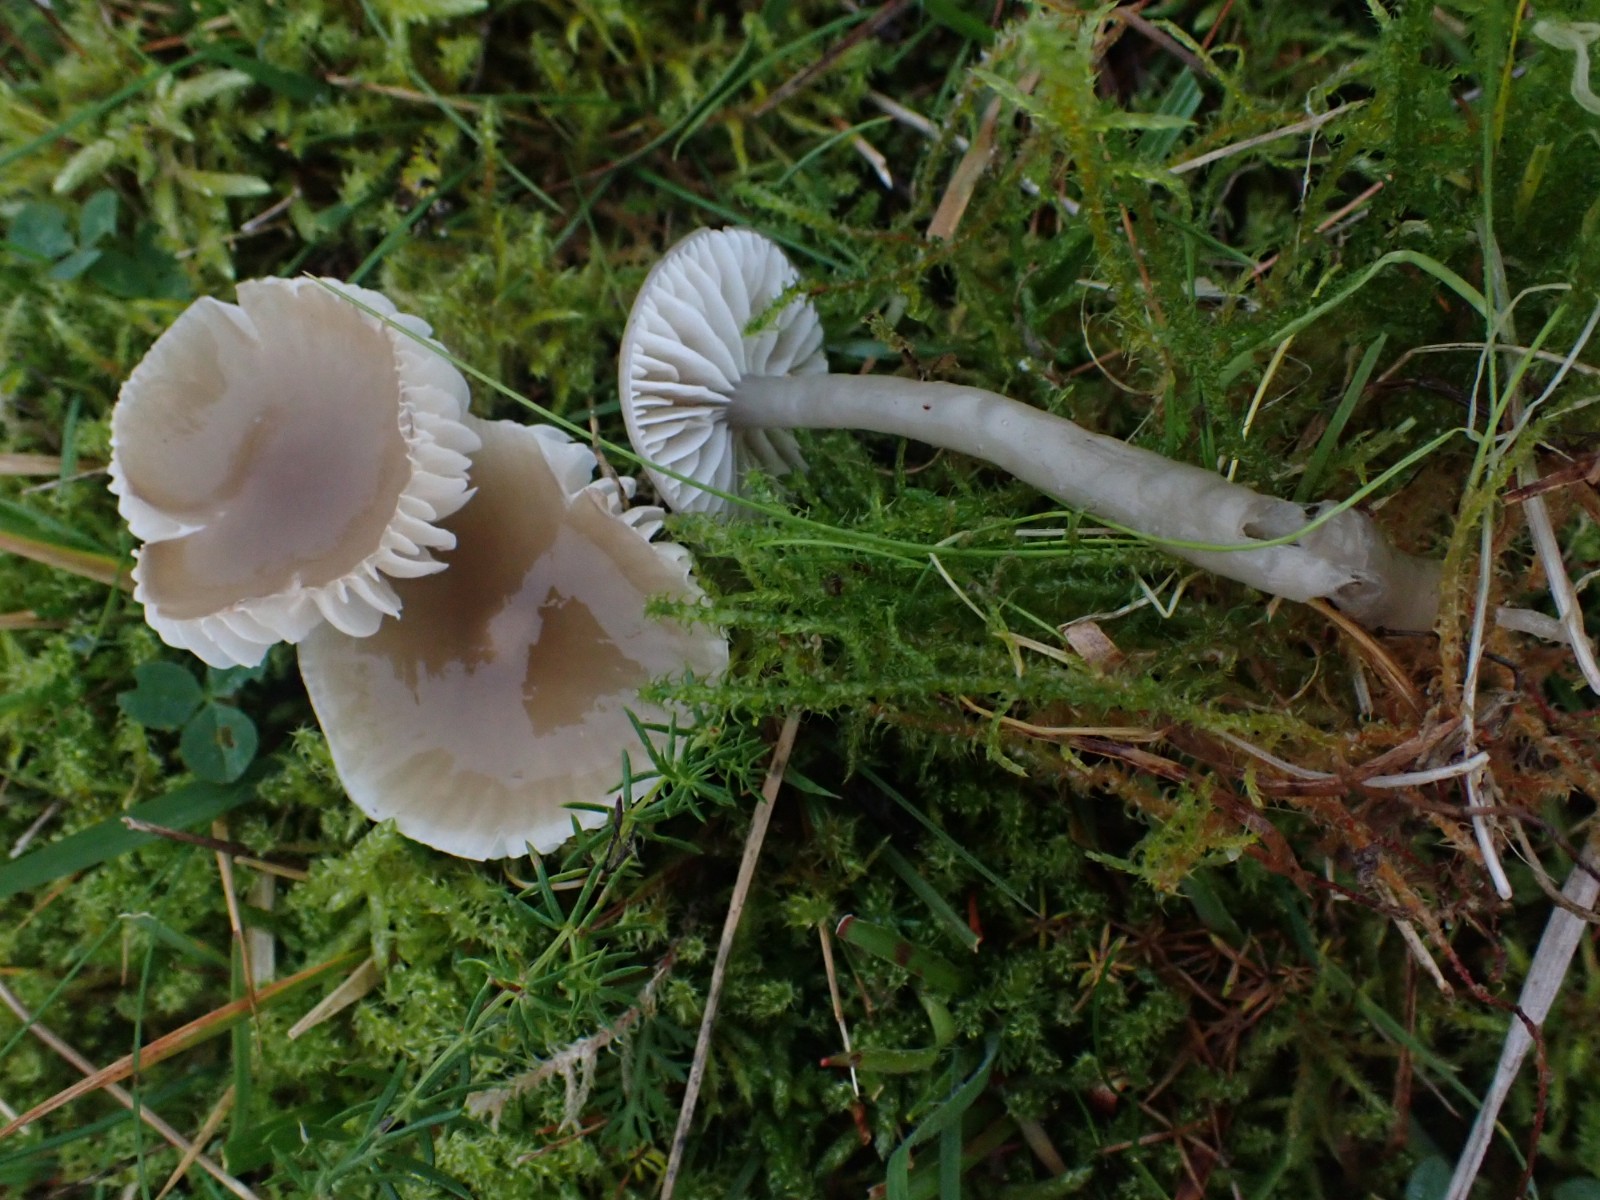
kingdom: Fungi
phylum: Basidiomycota
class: Agaricomycetes
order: Agaricales
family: Hygrophoraceae
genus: Gliophorus
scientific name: Gliophorus irrigatus
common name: slimet vokshat
